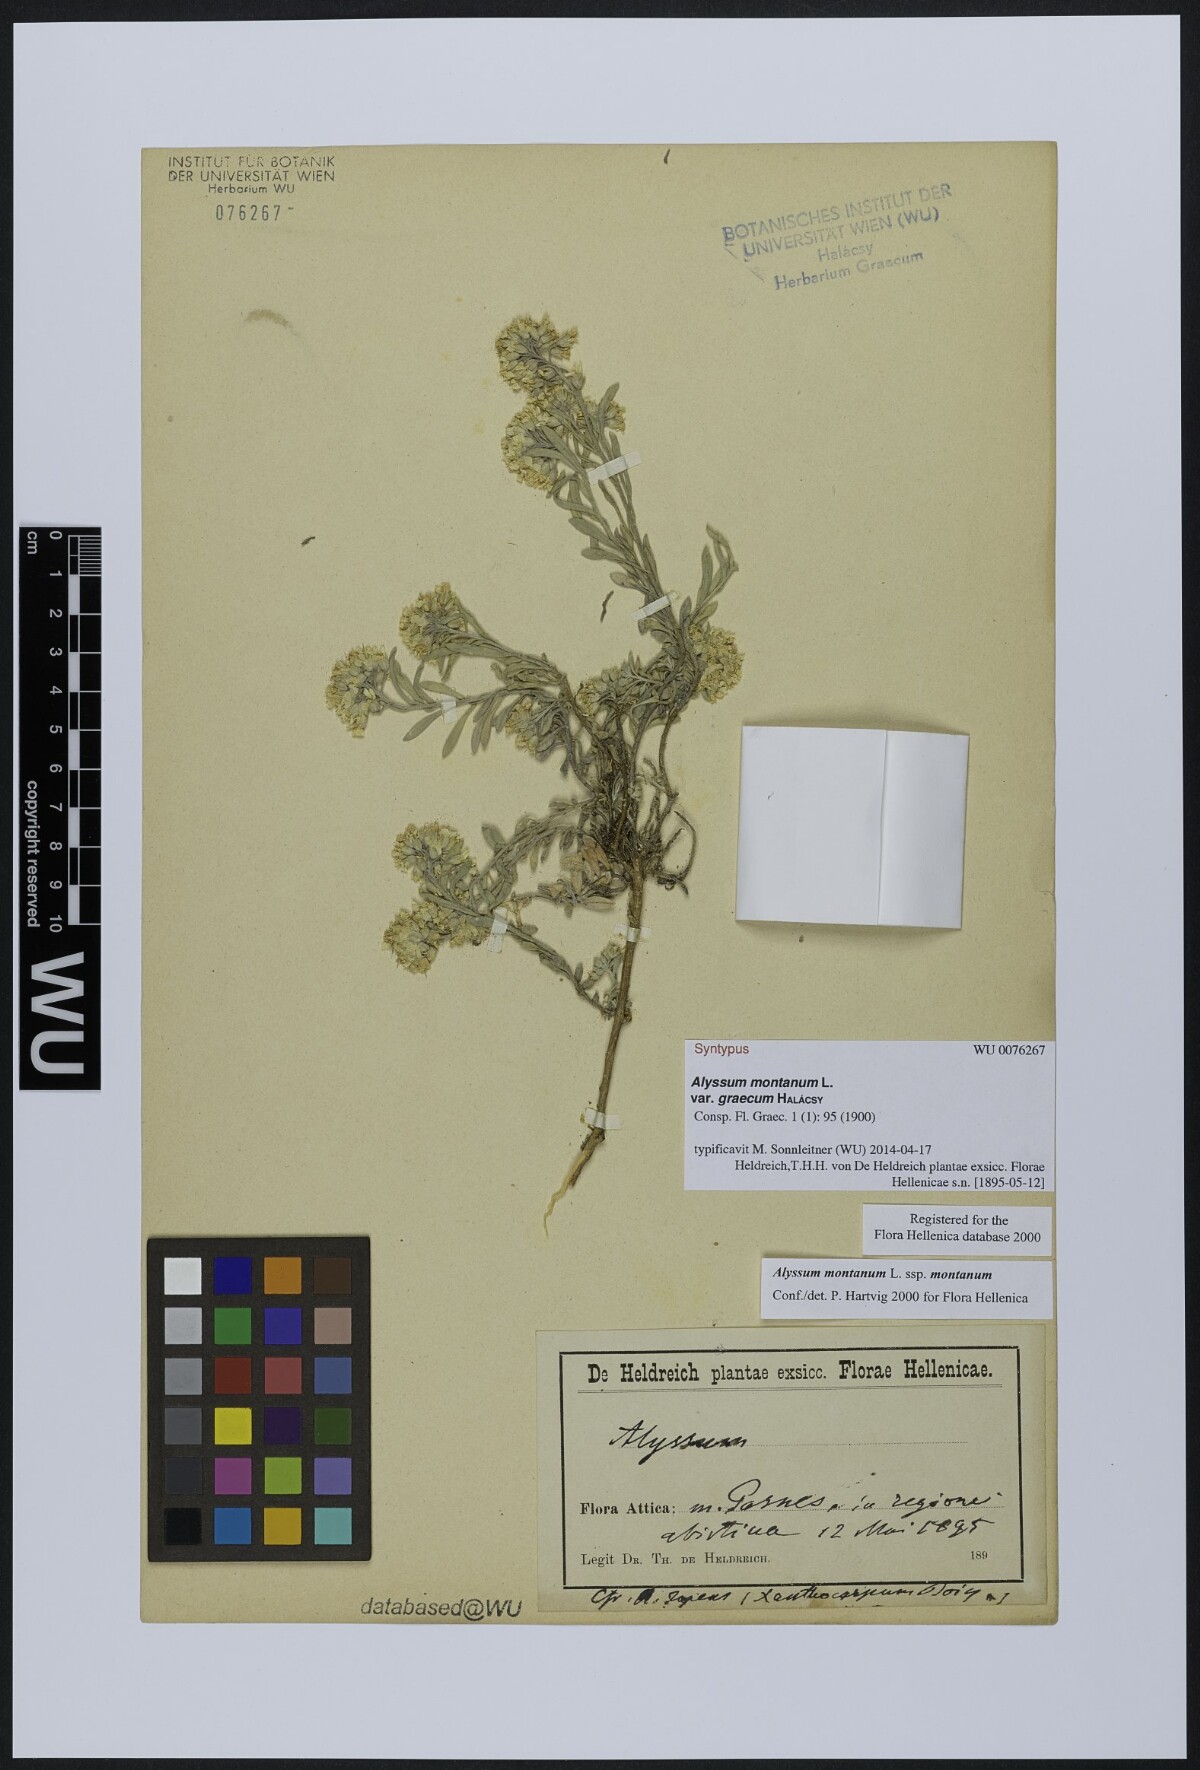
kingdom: Plantae
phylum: Tracheophyta
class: Magnoliopsida
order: Brassicales
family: Brassicaceae
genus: Alyssum
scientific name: Alyssum montanum
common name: Mountain alison
